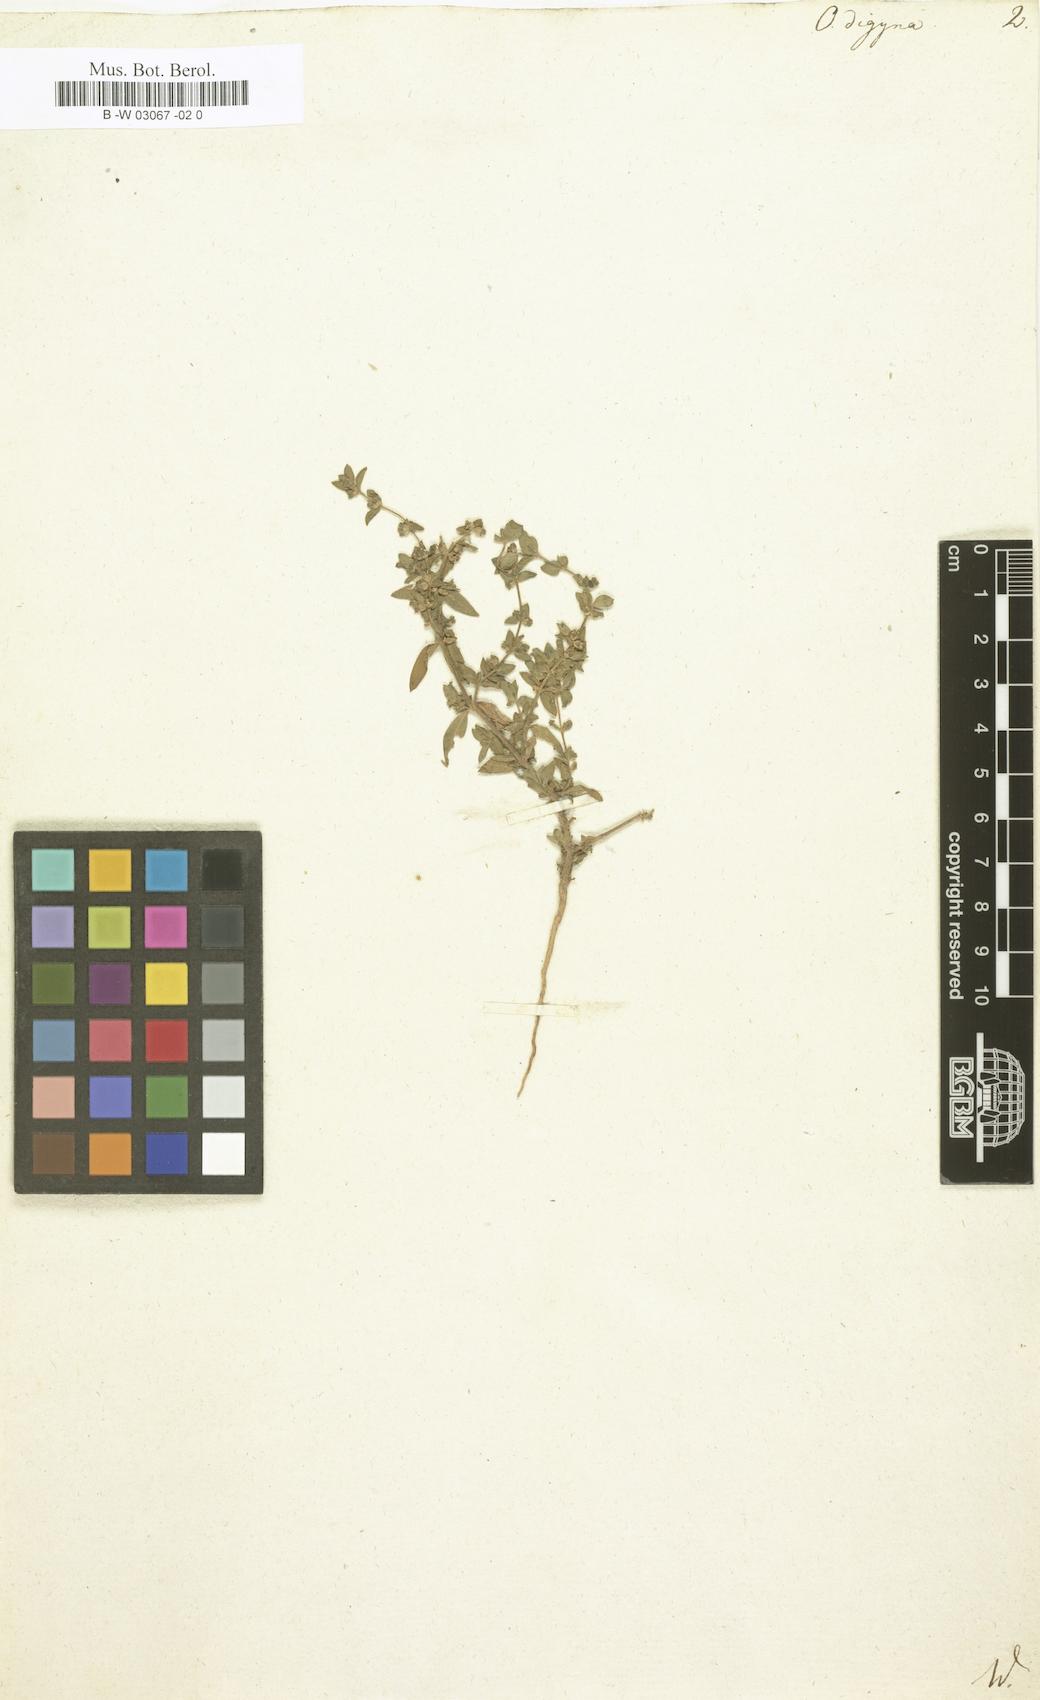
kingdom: Plantae
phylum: Tracheophyta
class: Magnoliopsida
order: Vahliales
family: Vahliaceae
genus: Vahlia
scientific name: Vahlia digyna
